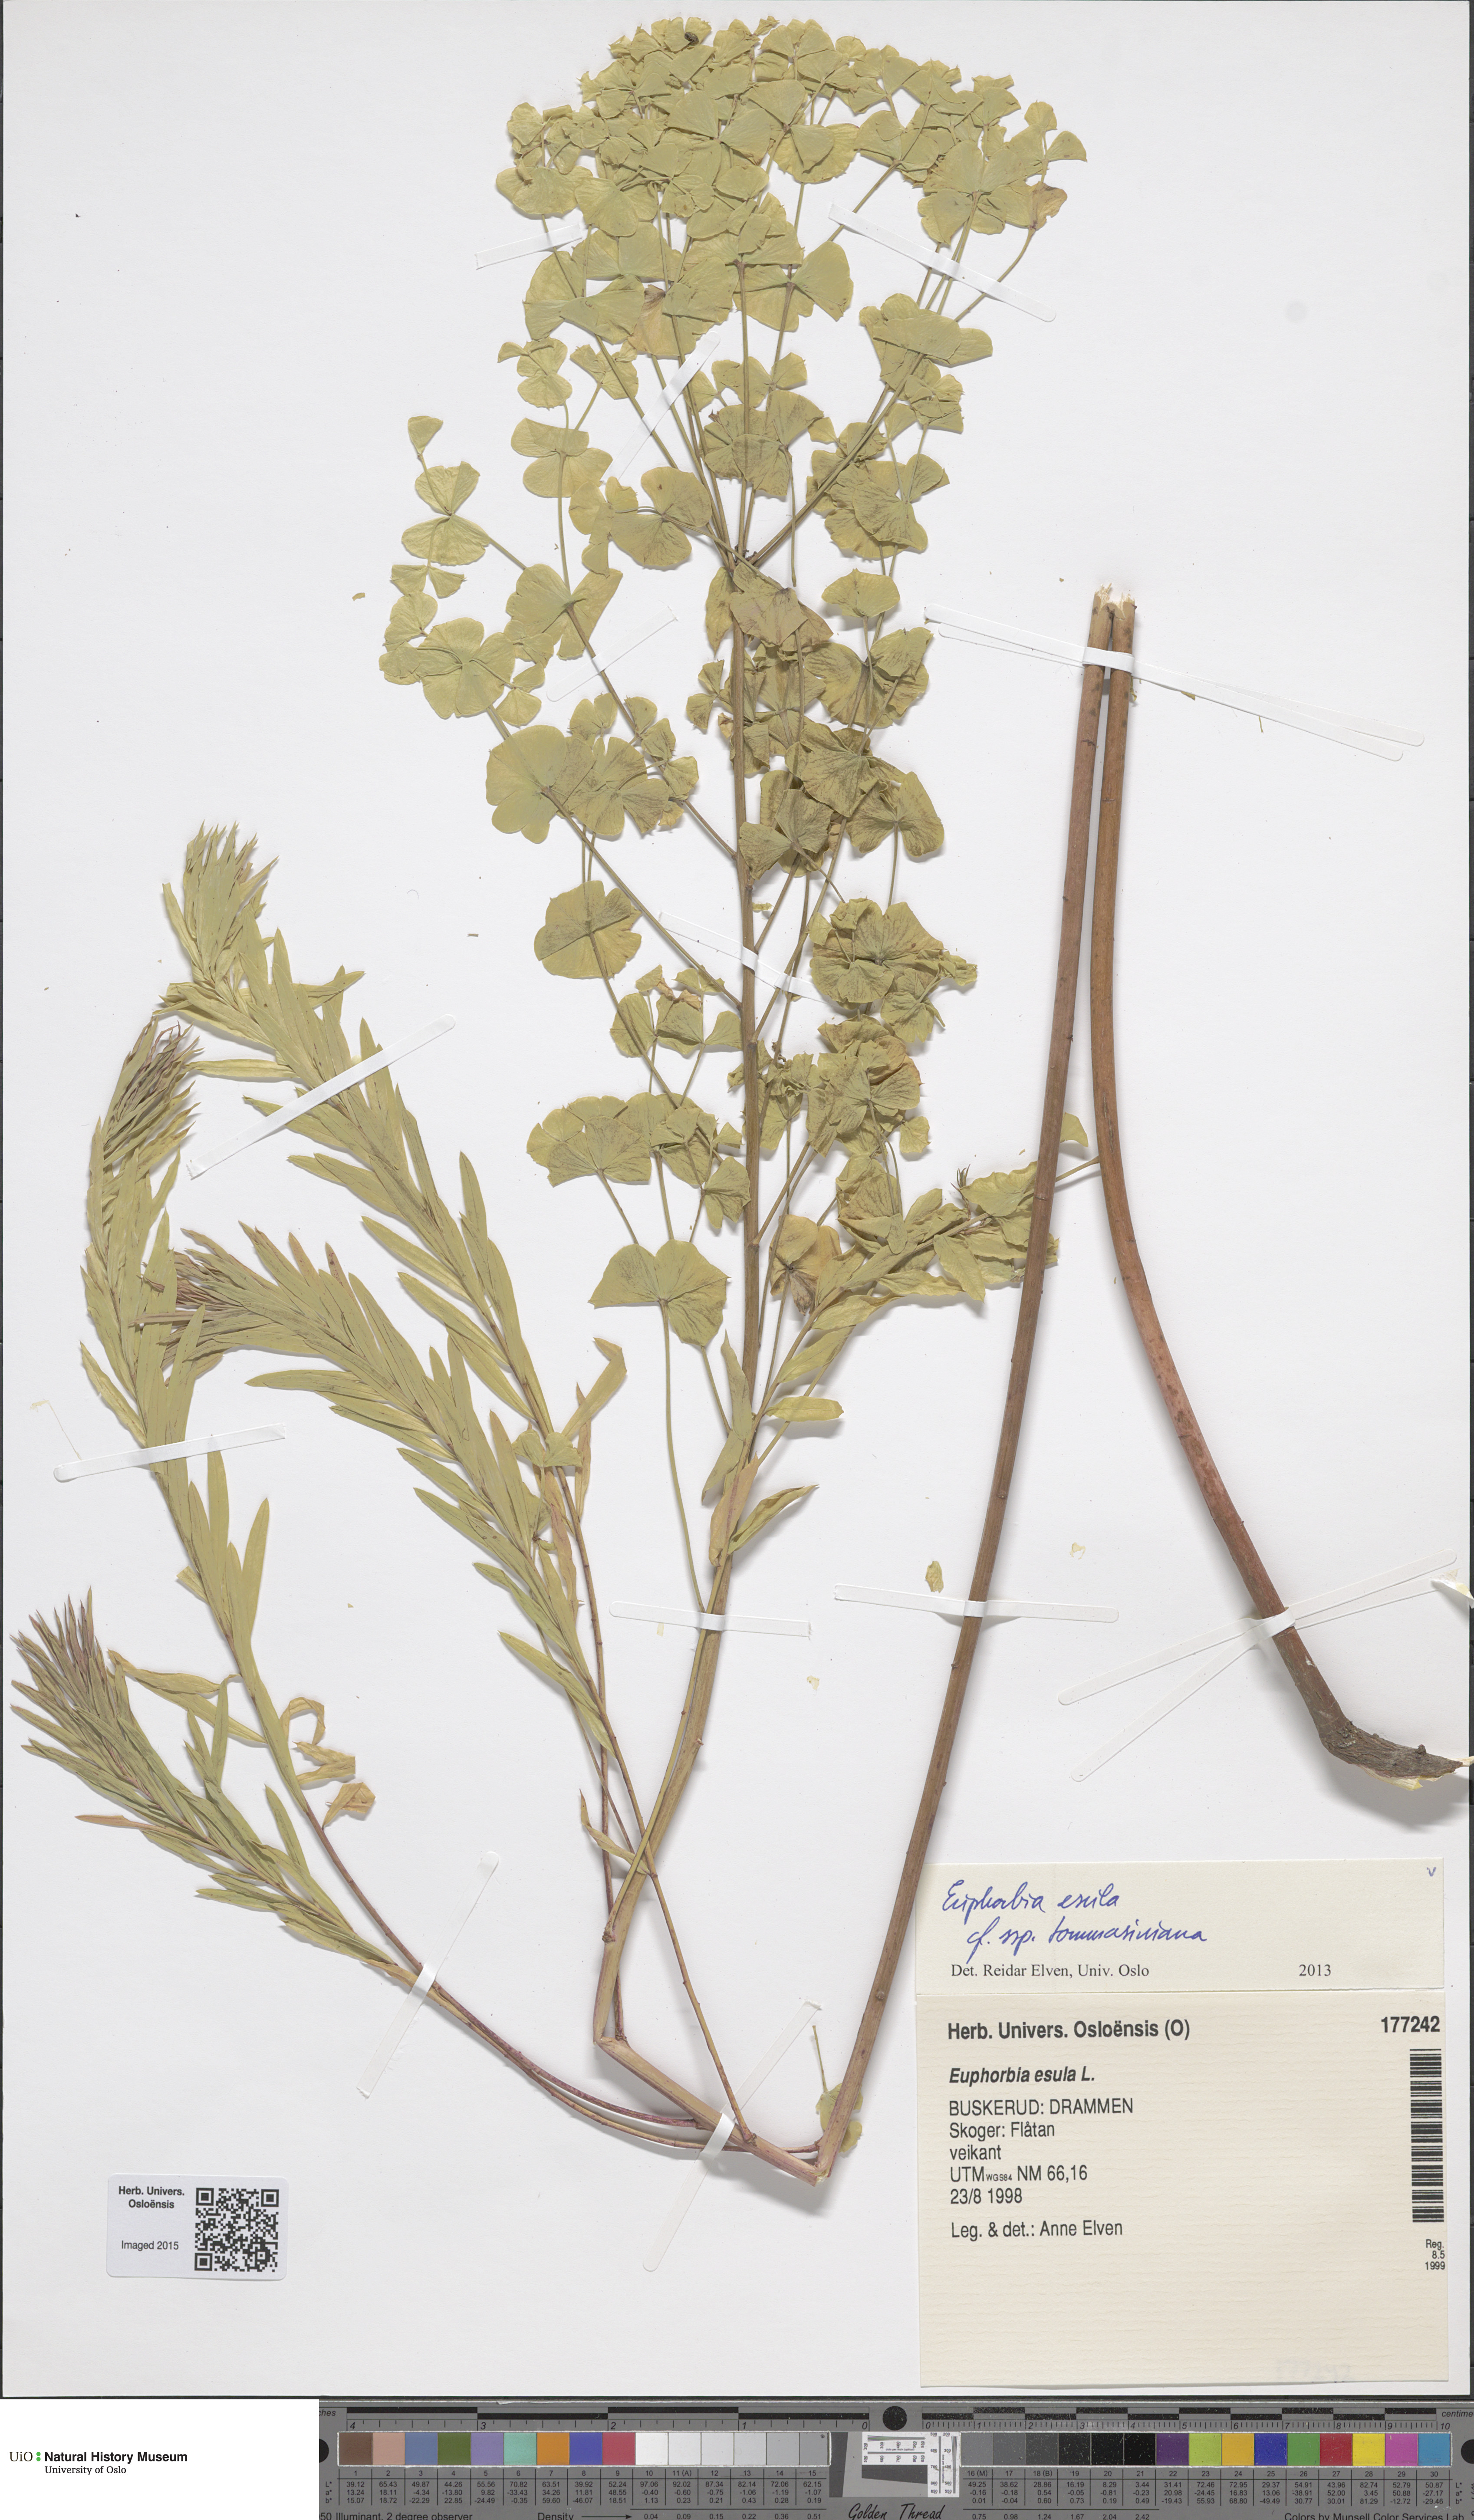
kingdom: Plantae
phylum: Tracheophyta
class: Magnoliopsida
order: Malpighiales
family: Euphorbiaceae
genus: Euphorbia
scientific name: Euphorbia tommasiniana
